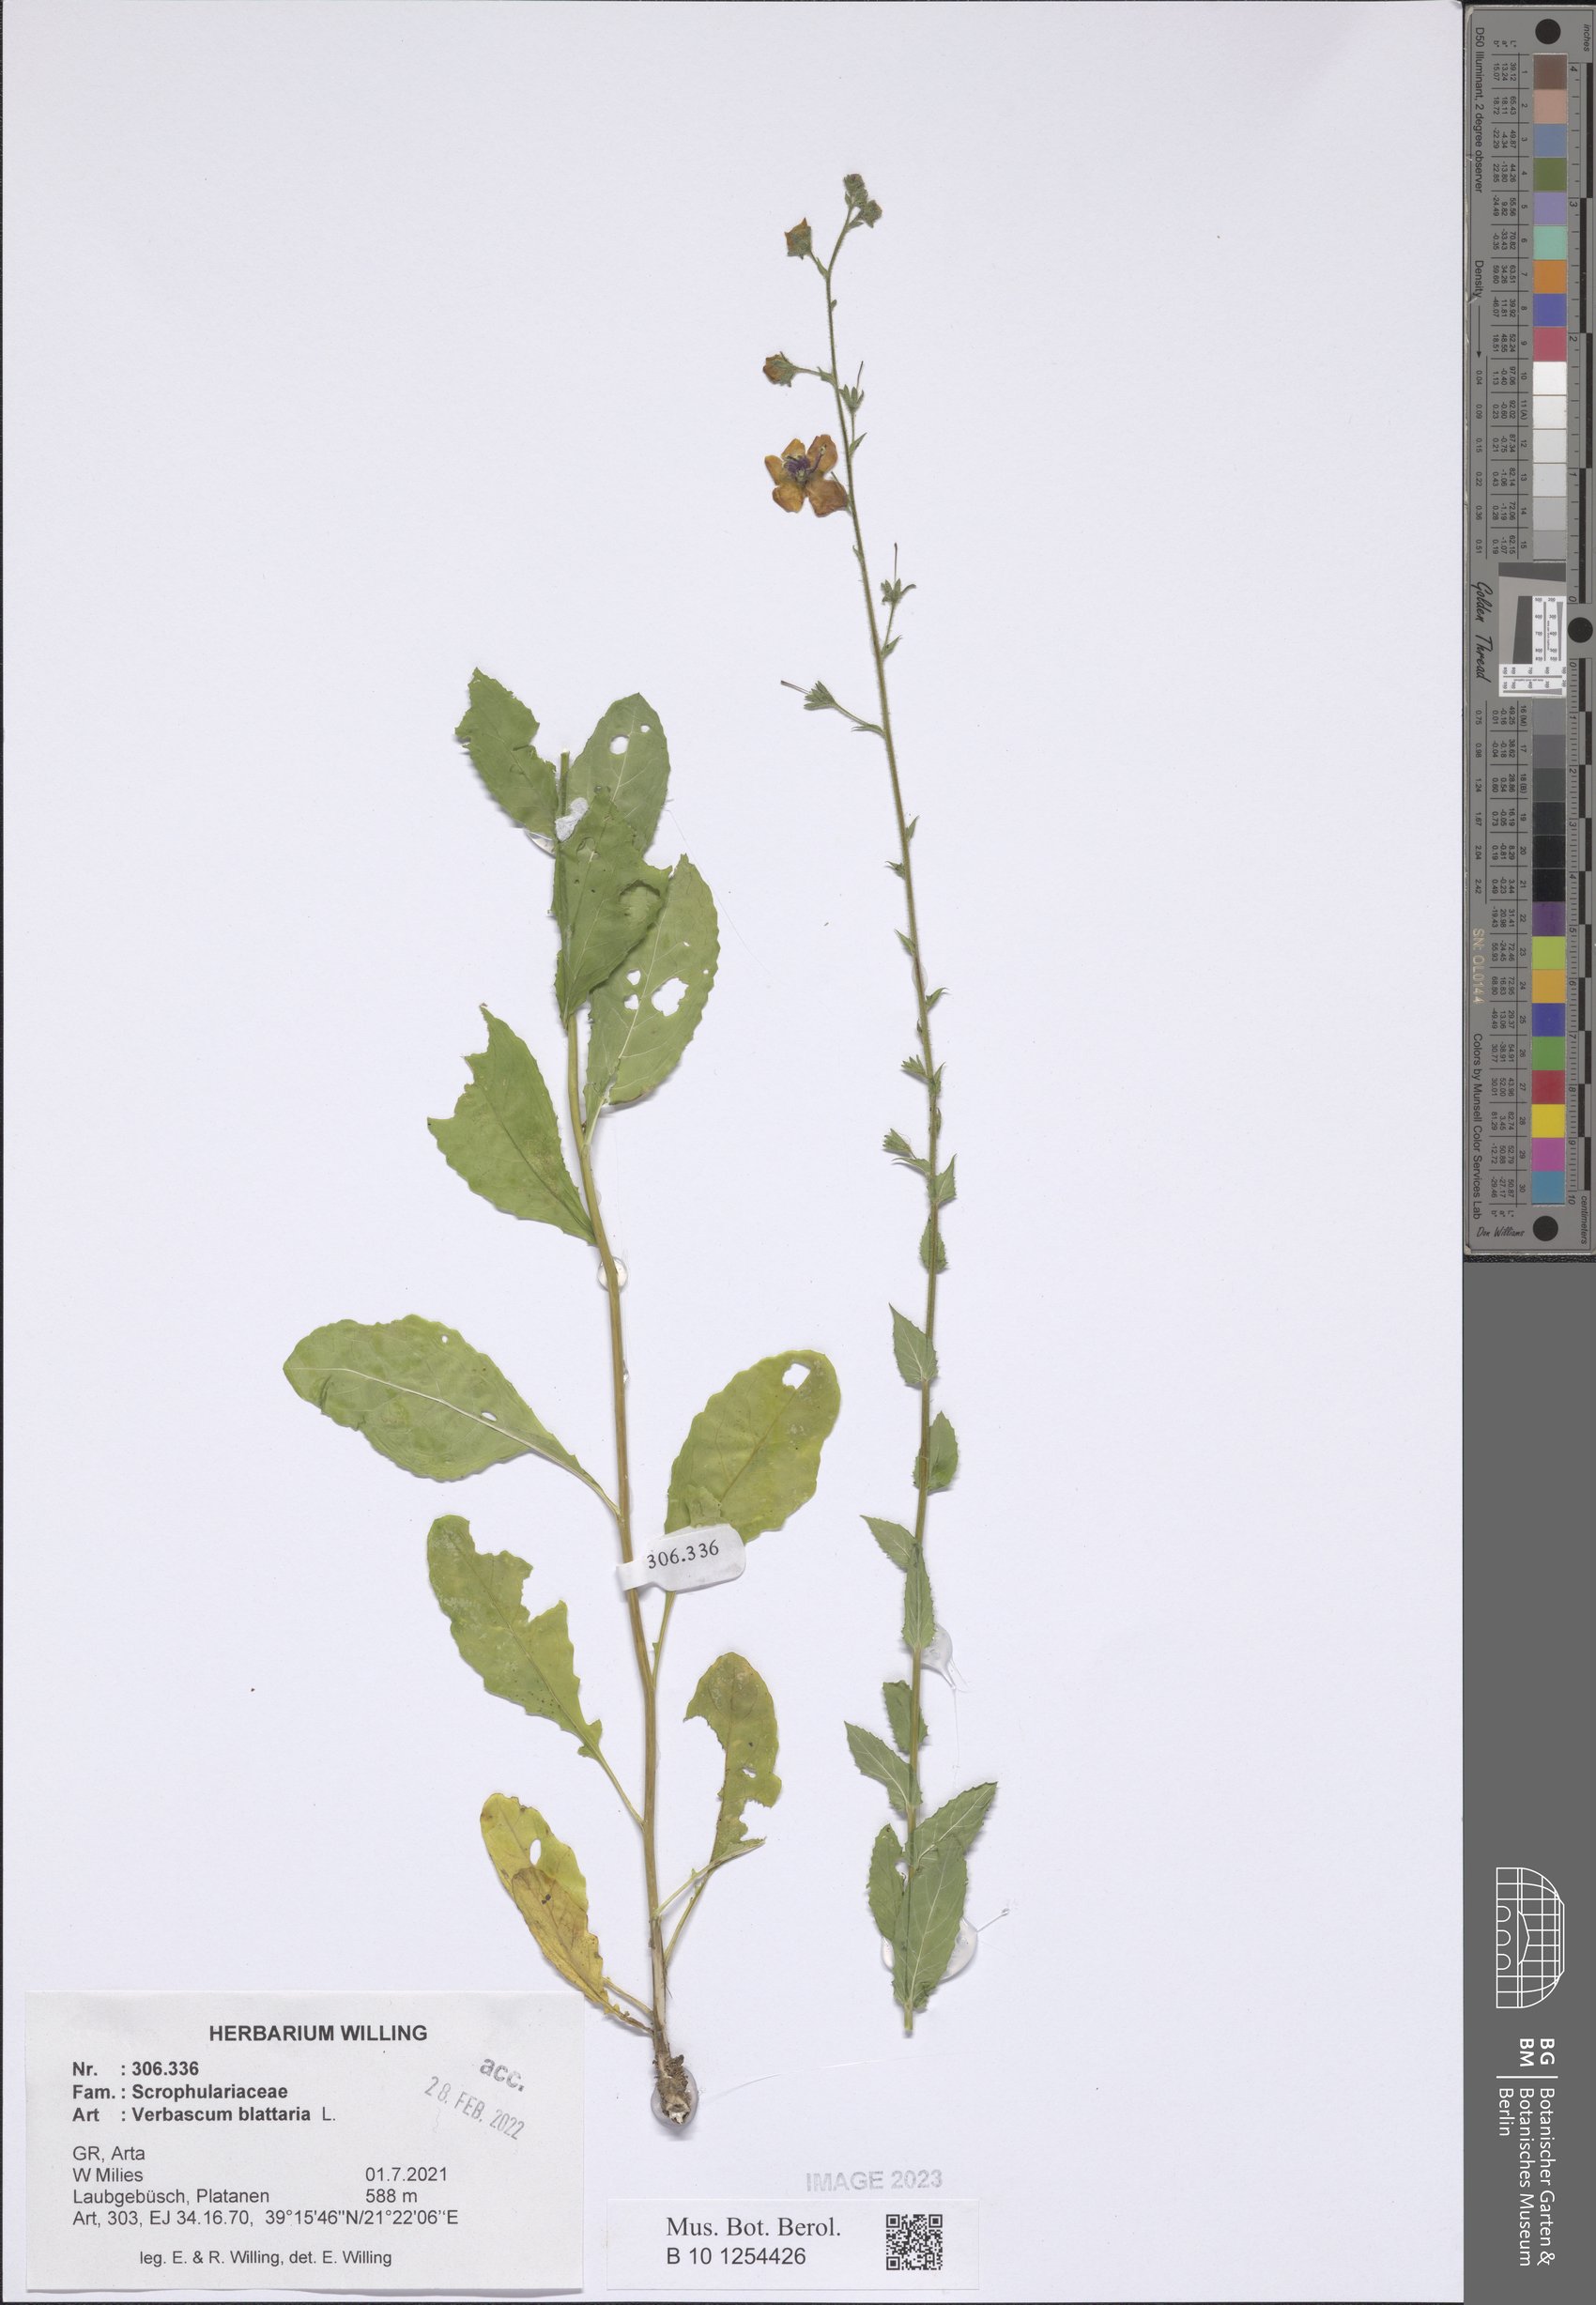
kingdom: Plantae
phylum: Tracheophyta
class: Magnoliopsida
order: Lamiales
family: Scrophulariaceae
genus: Verbascum
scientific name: Verbascum blattaria
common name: Moth mullein
